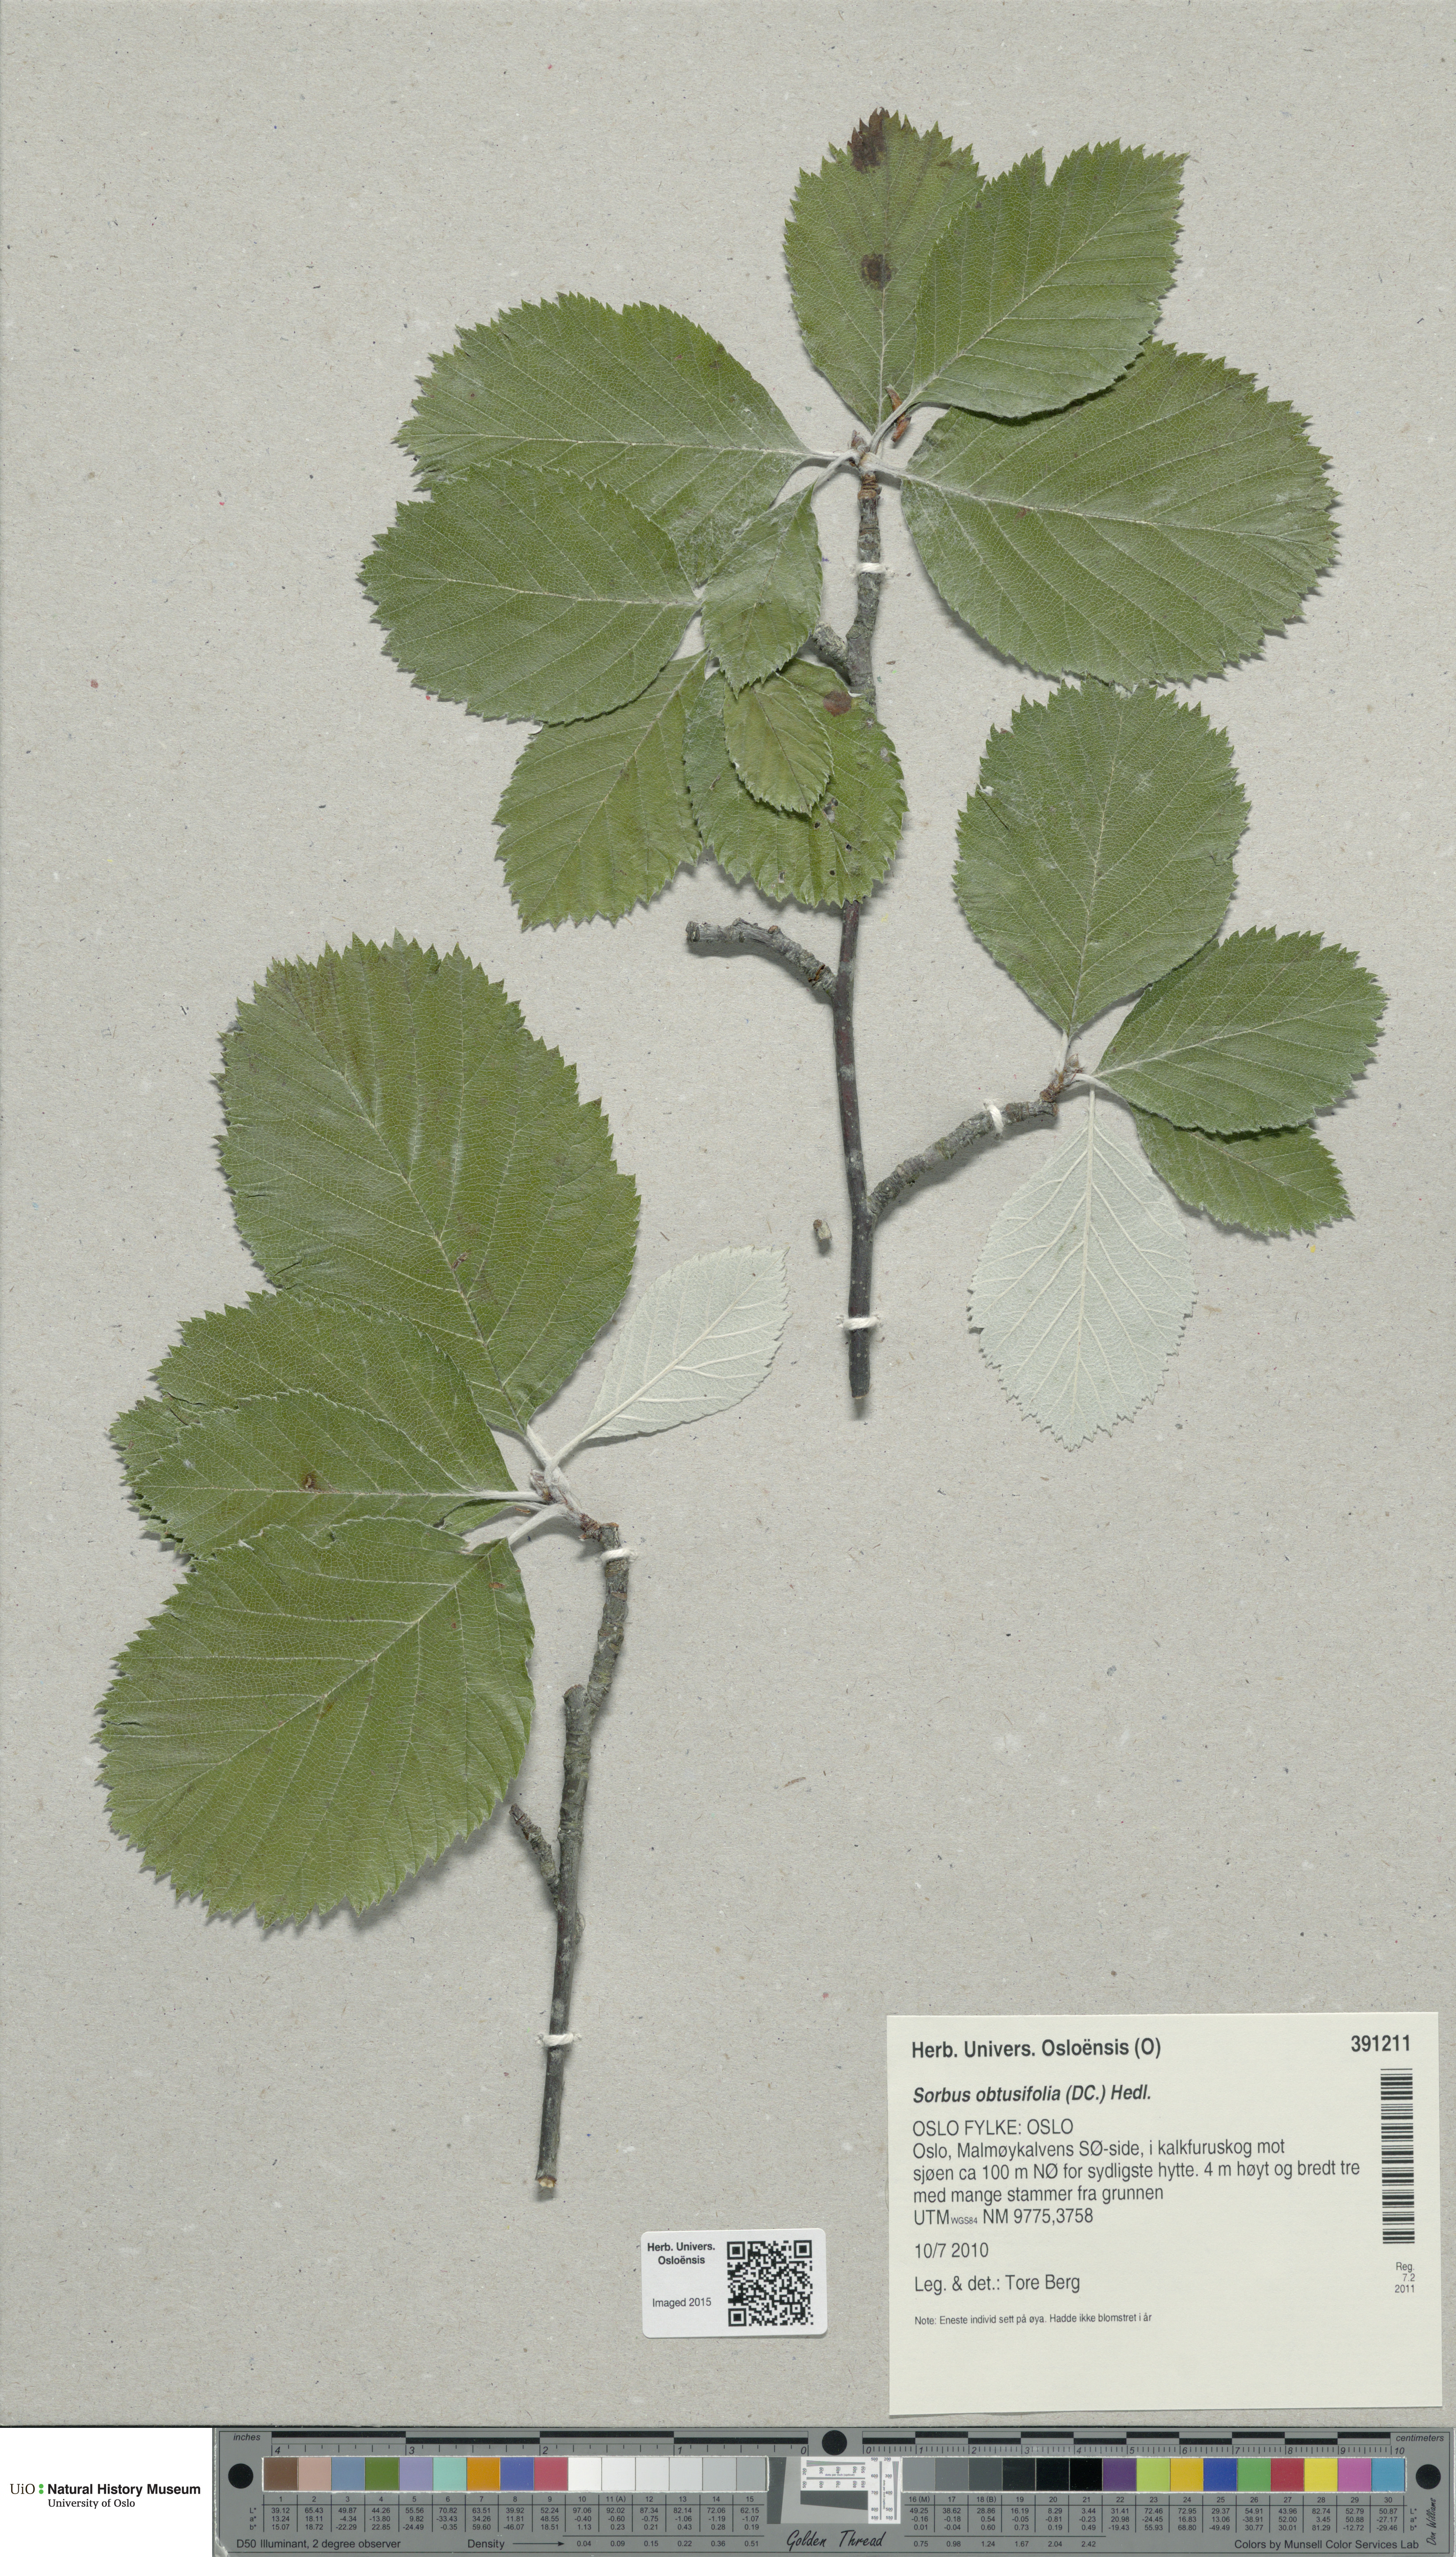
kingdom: Plantae
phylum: Tracheophyta
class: Magnoliopsida
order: Rosales
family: Rosaceae
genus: Aria
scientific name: Aria obtusifolia
